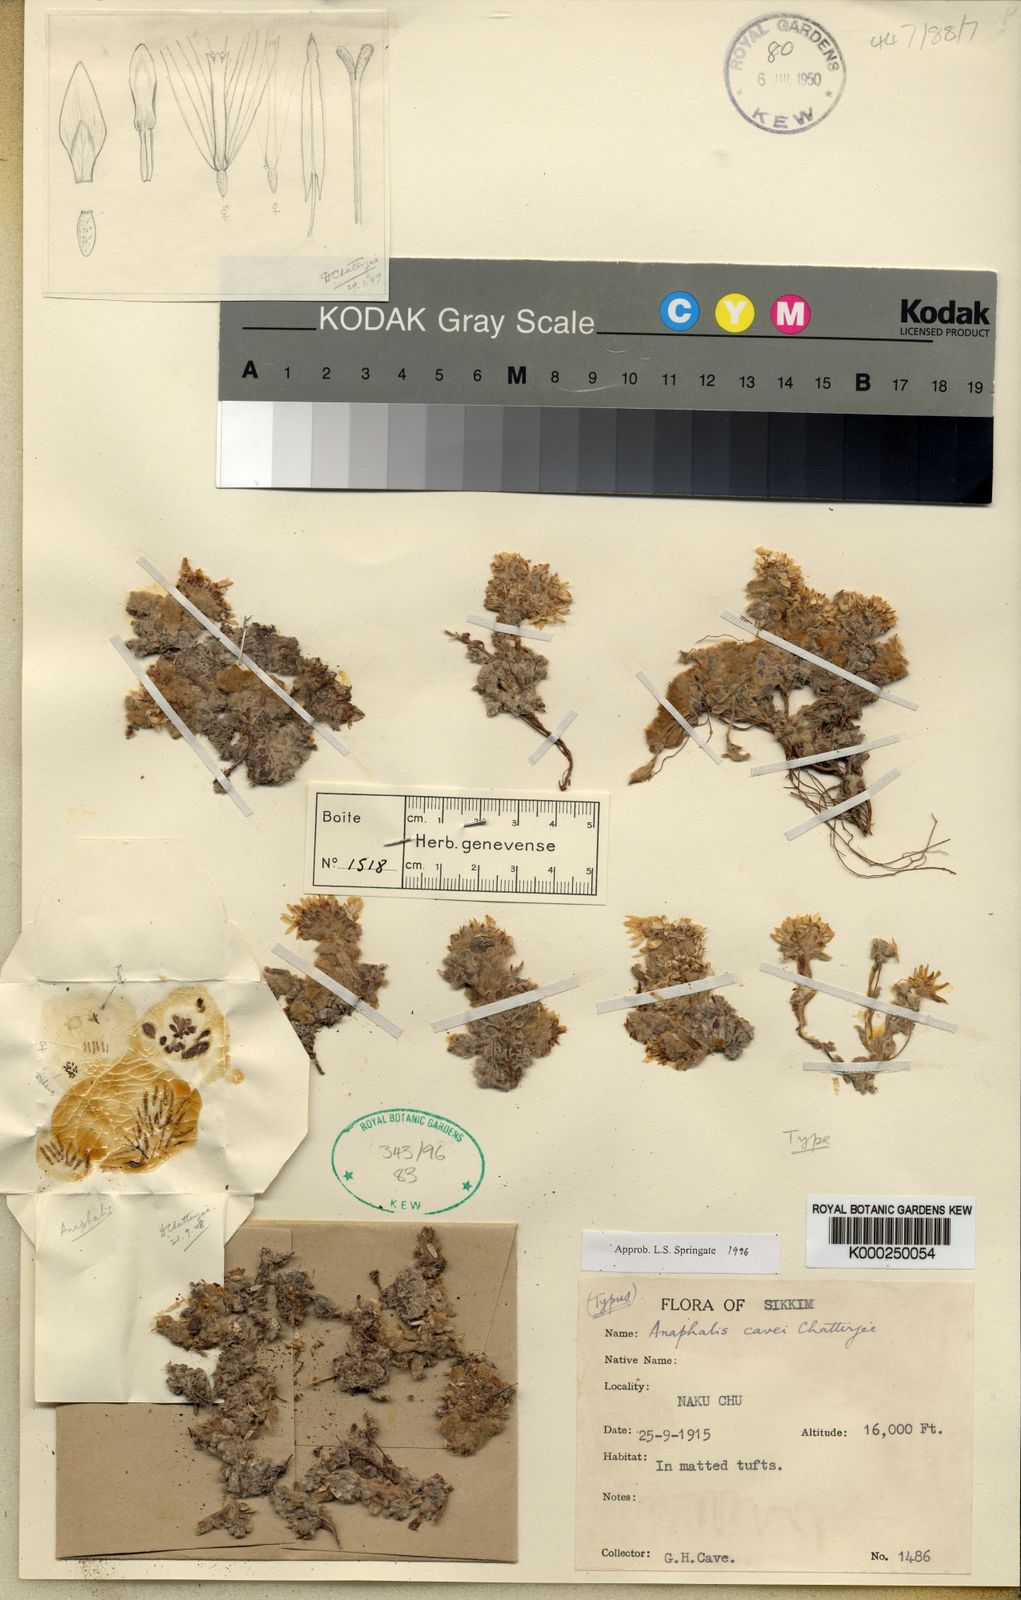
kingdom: Plantae
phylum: Tracheophyta
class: Magnoliopsida
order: Asterales
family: Asteraceae
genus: Anaphalis
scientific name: Anaphalis cavei
